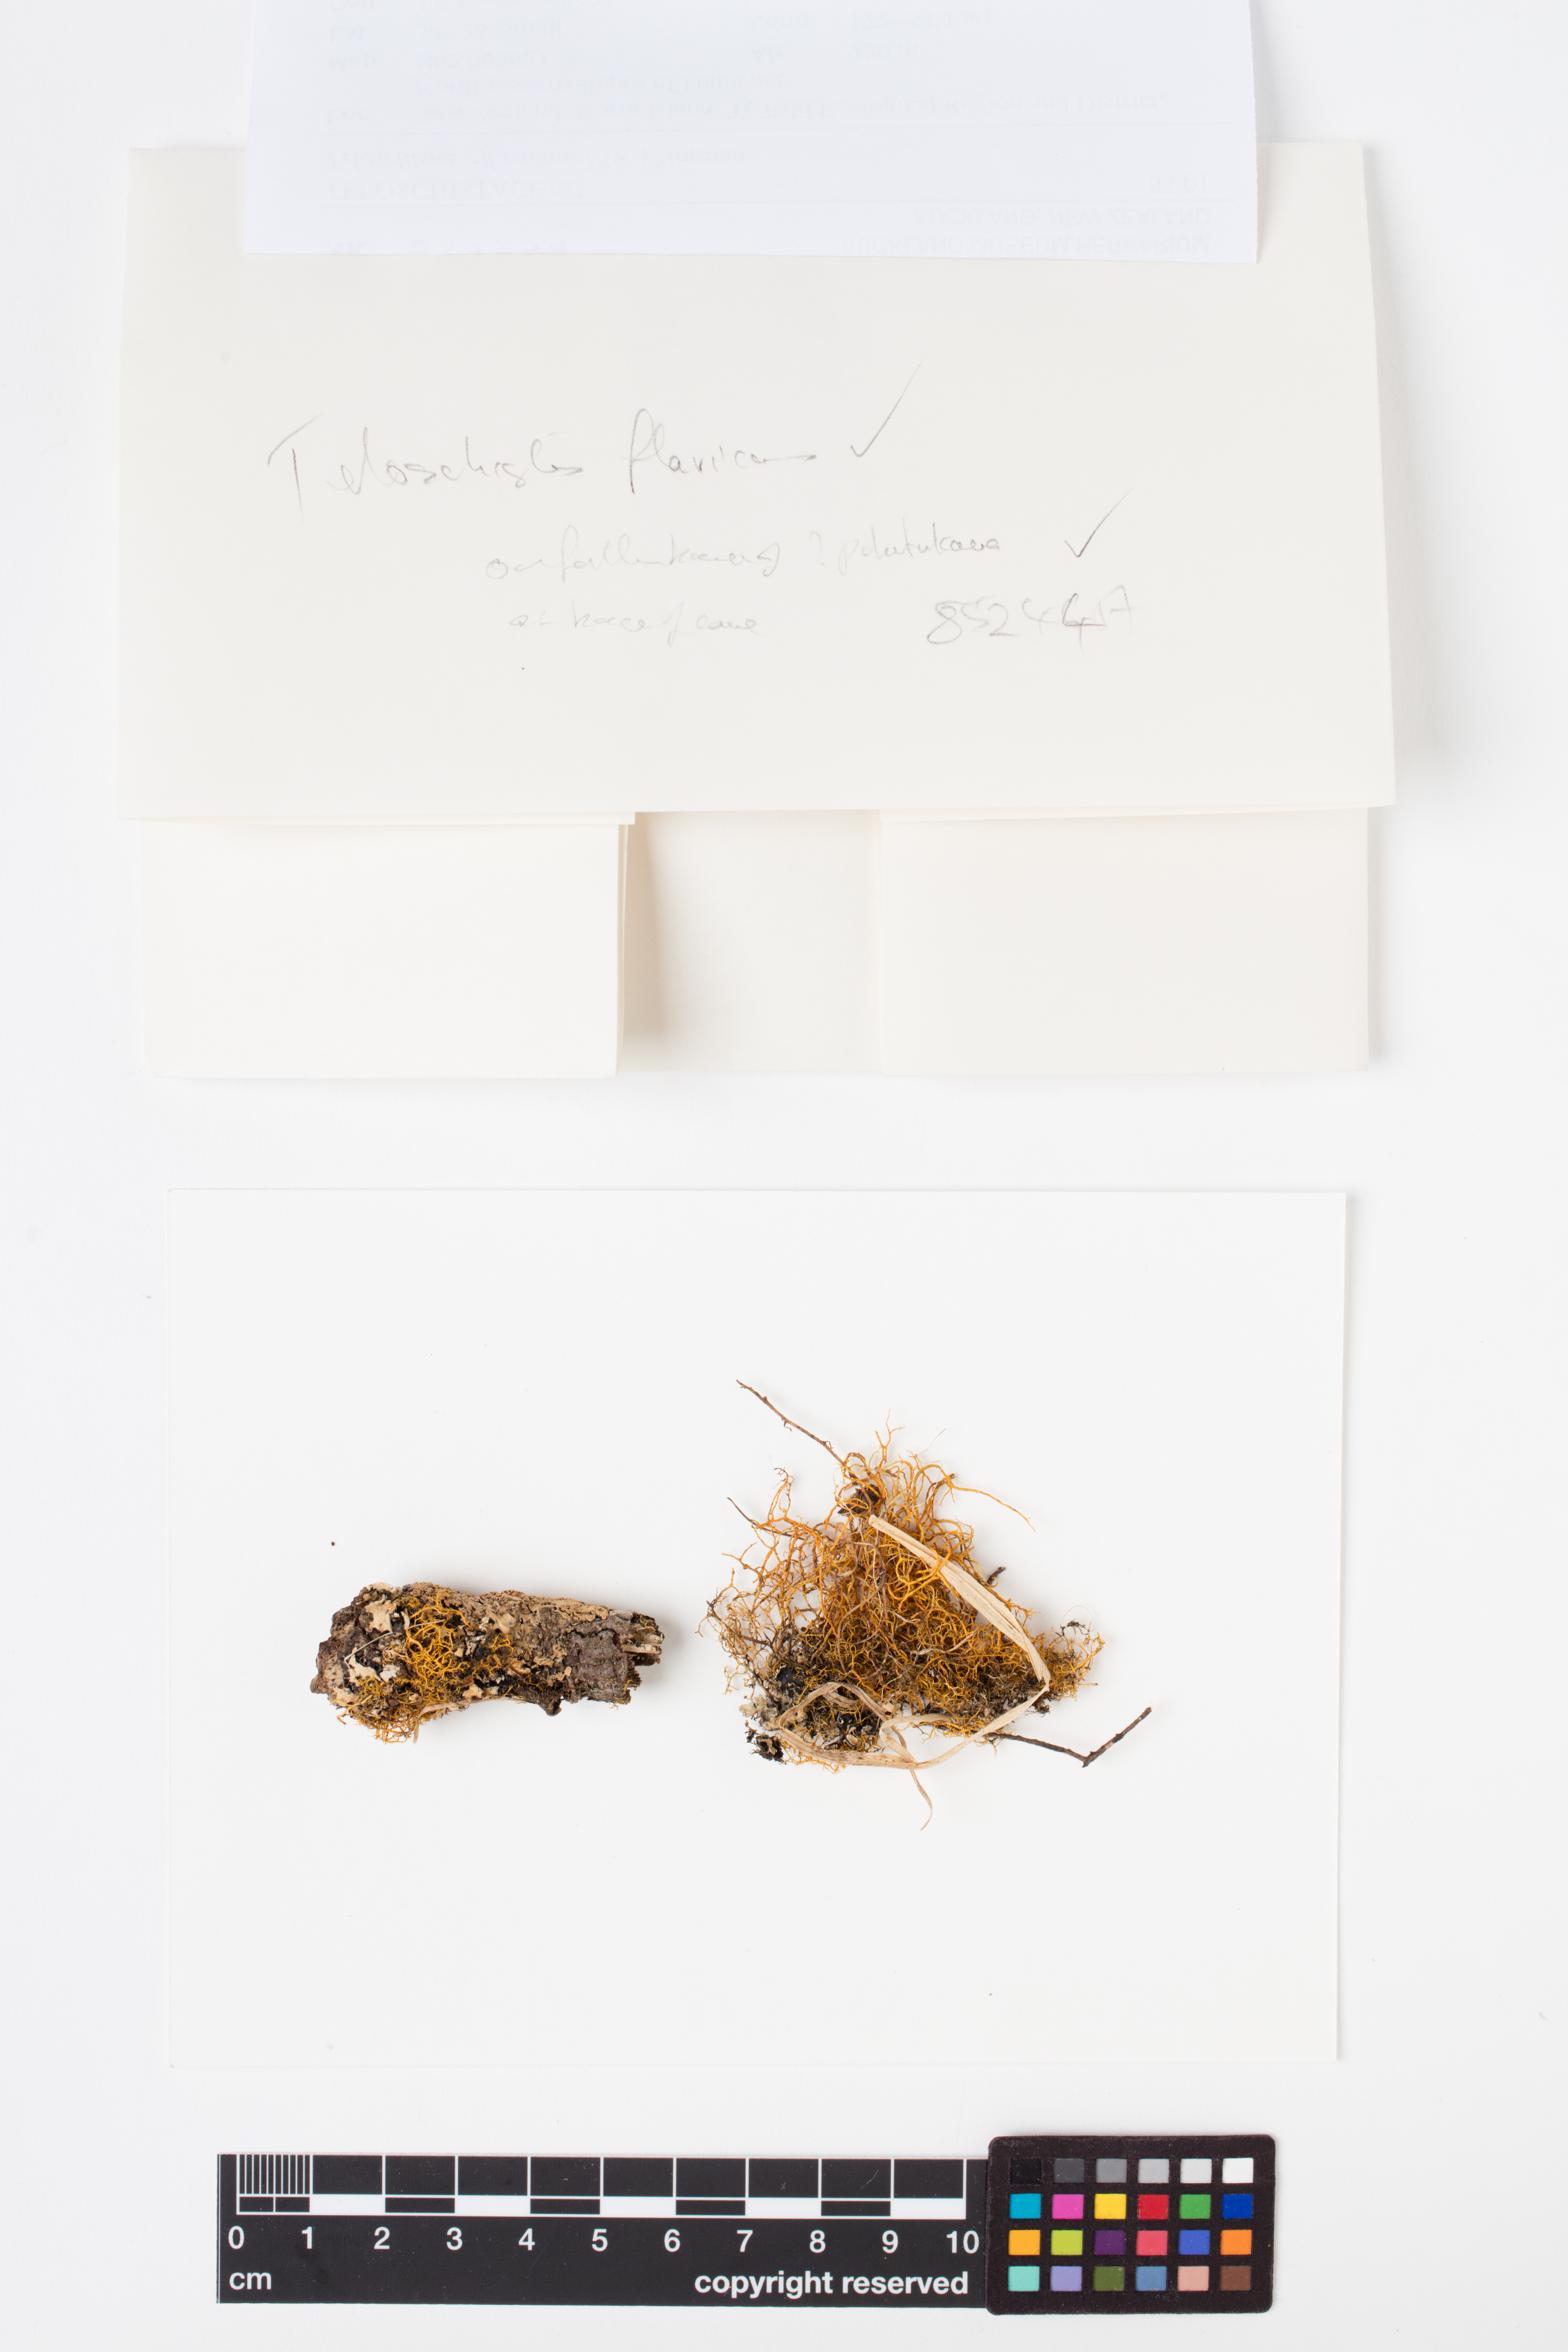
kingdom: Fungi
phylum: Ascomycota
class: Lecanoromycetes
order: Teloschistales
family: Teloschistaceae
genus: Teloschistes
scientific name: Teloschistes flavicans
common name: Golden hair-lichen
